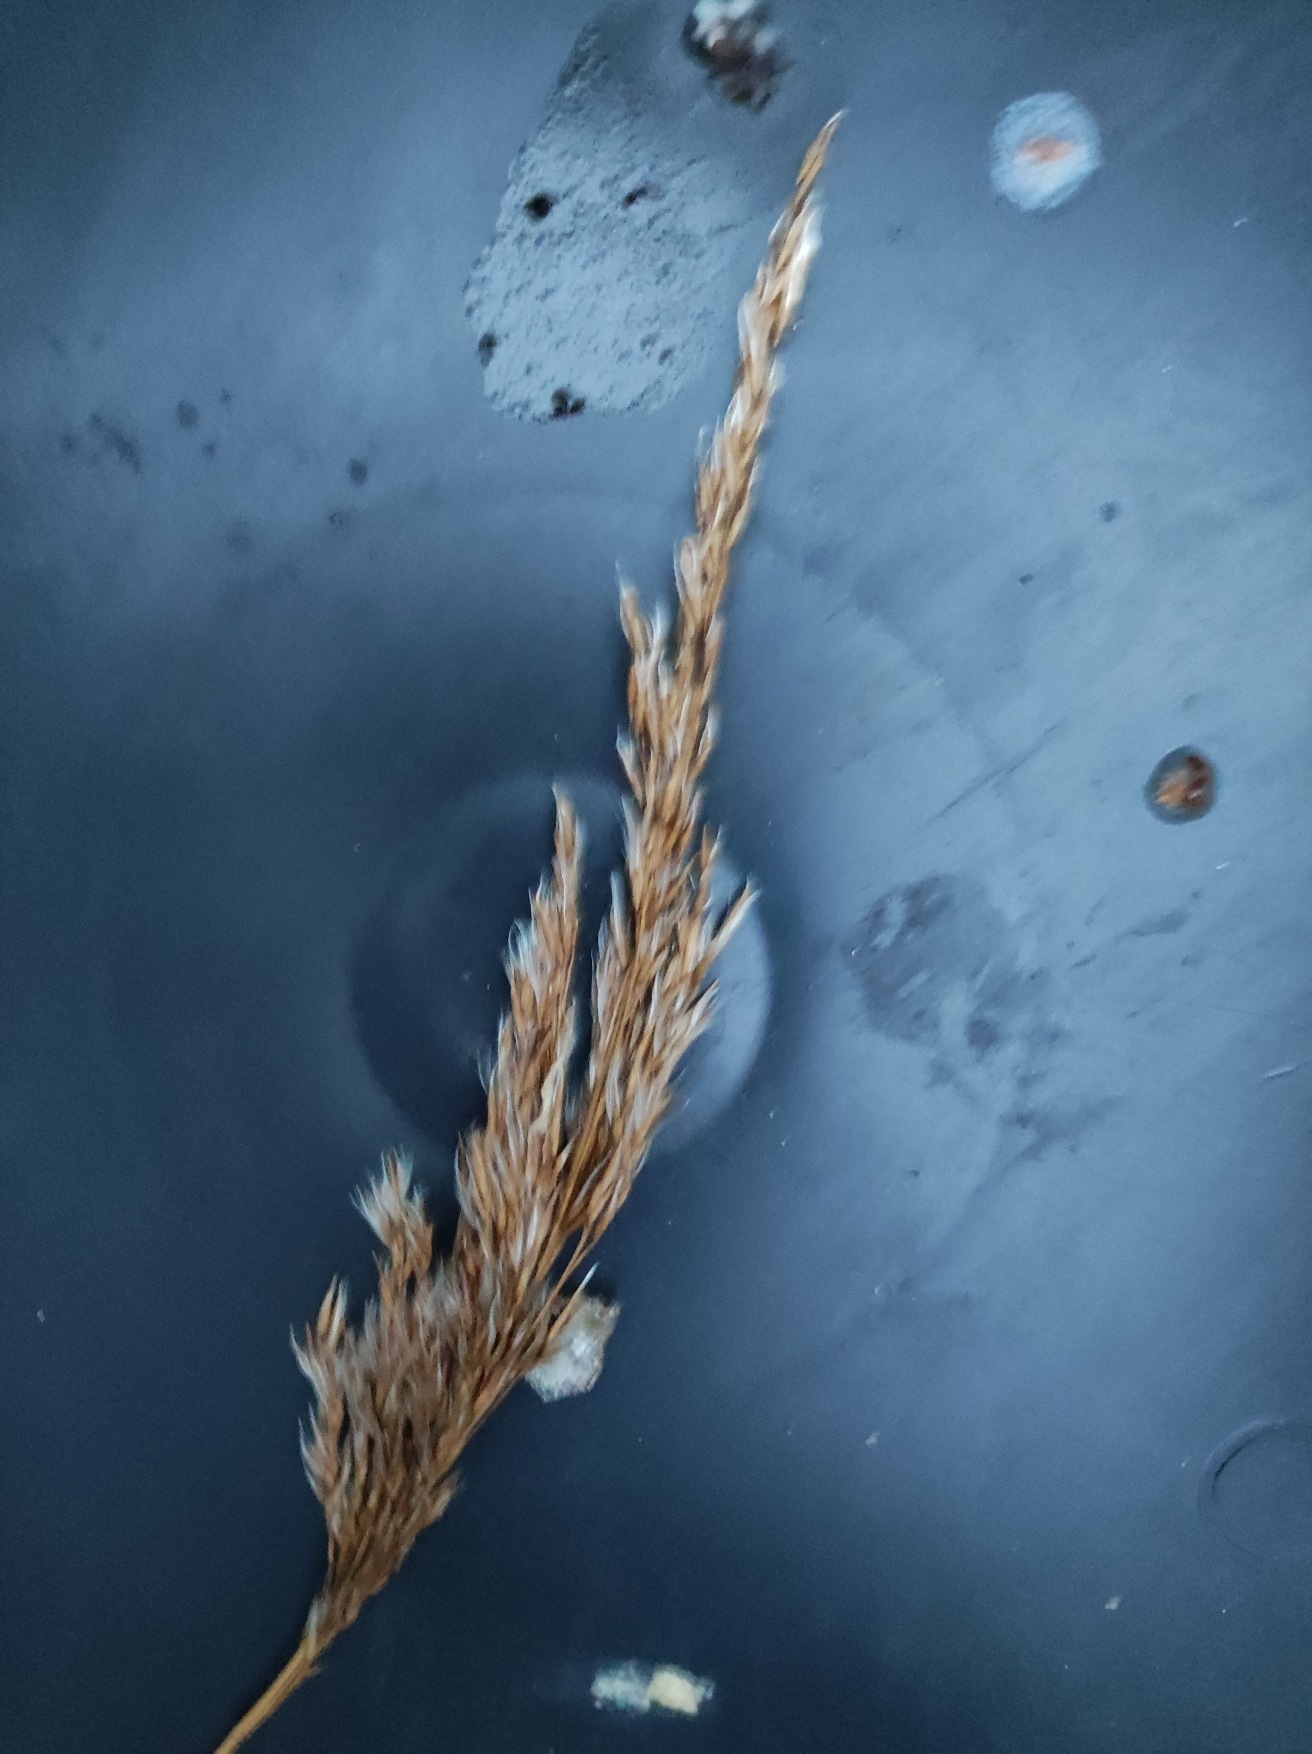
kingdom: Plantae
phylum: Tracheophyta
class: Liliopsida
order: Poales
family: Poaceae
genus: Phragmites
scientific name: Phragmites australis
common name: Tagrør
